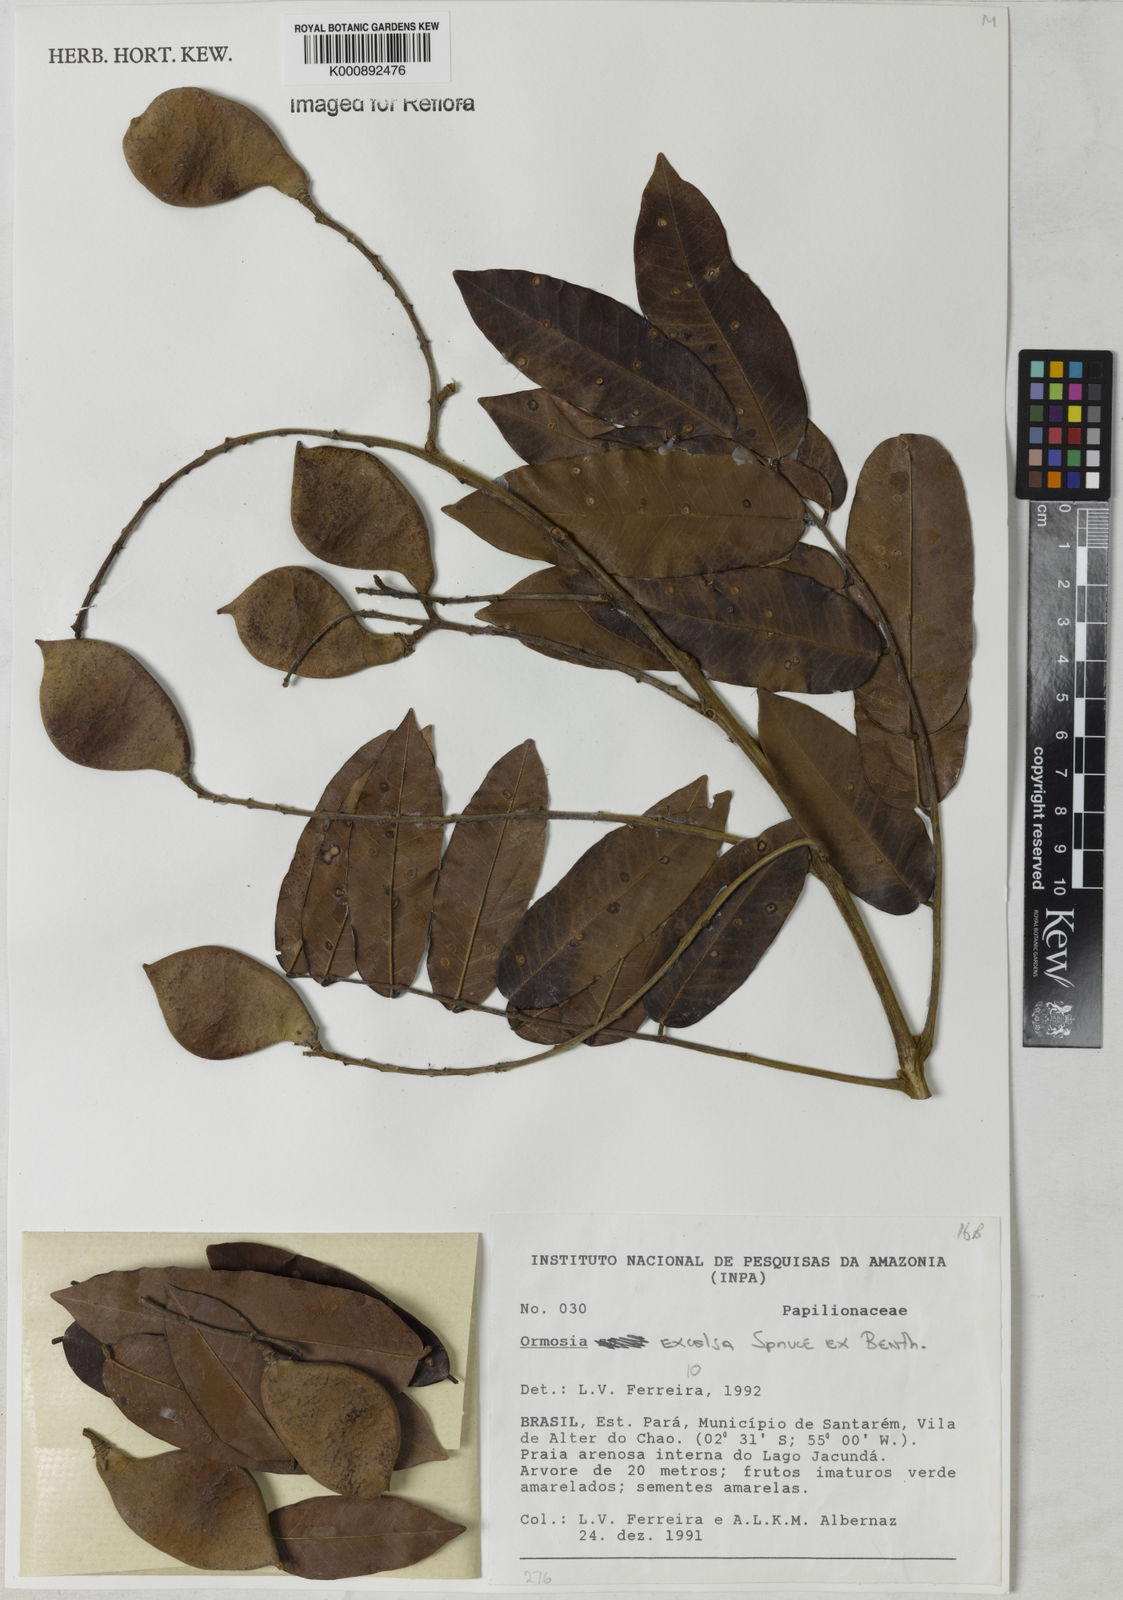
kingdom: Plantae
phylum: Tracheophyta
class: Magnoliopsida
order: Fabales
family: Fabaceae
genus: Ormosia
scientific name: Ormosia excelsa
